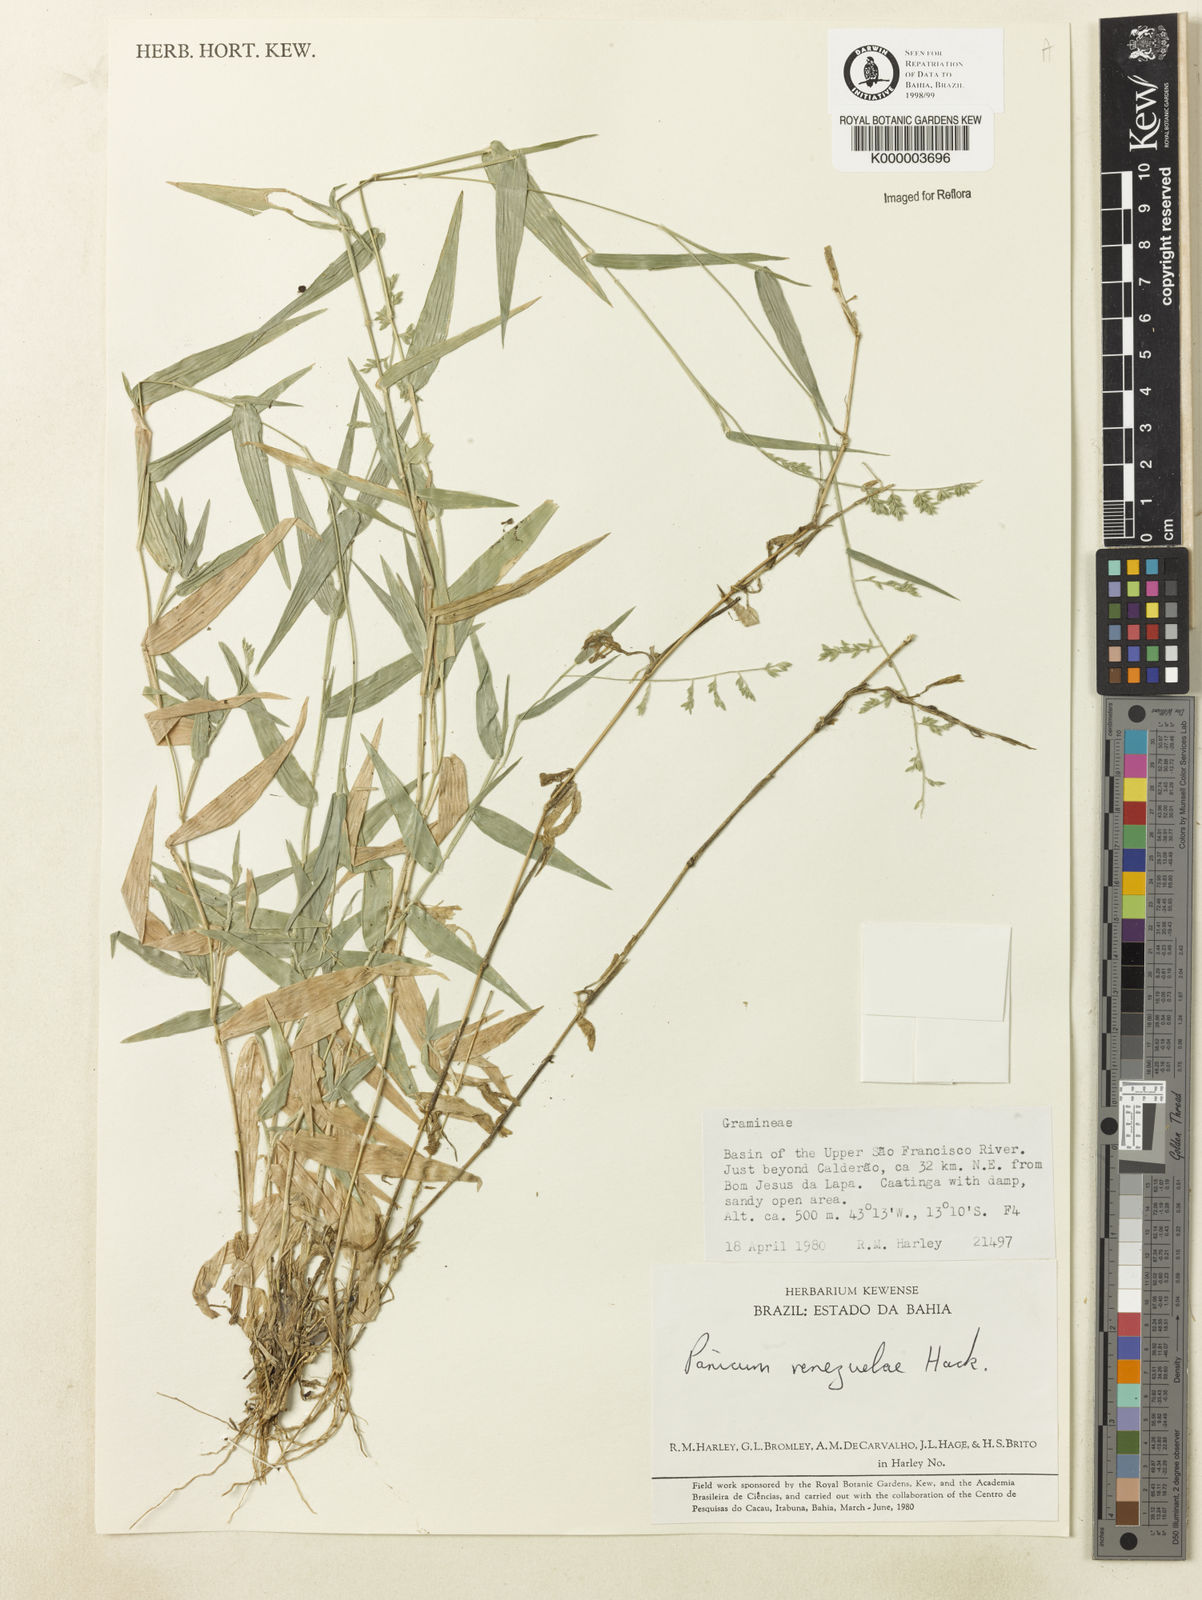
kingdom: Plantae
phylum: Tracheophyta
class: Liliopsida
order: Poales
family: Poaceae
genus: Panicum
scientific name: Panicum venezuelae
